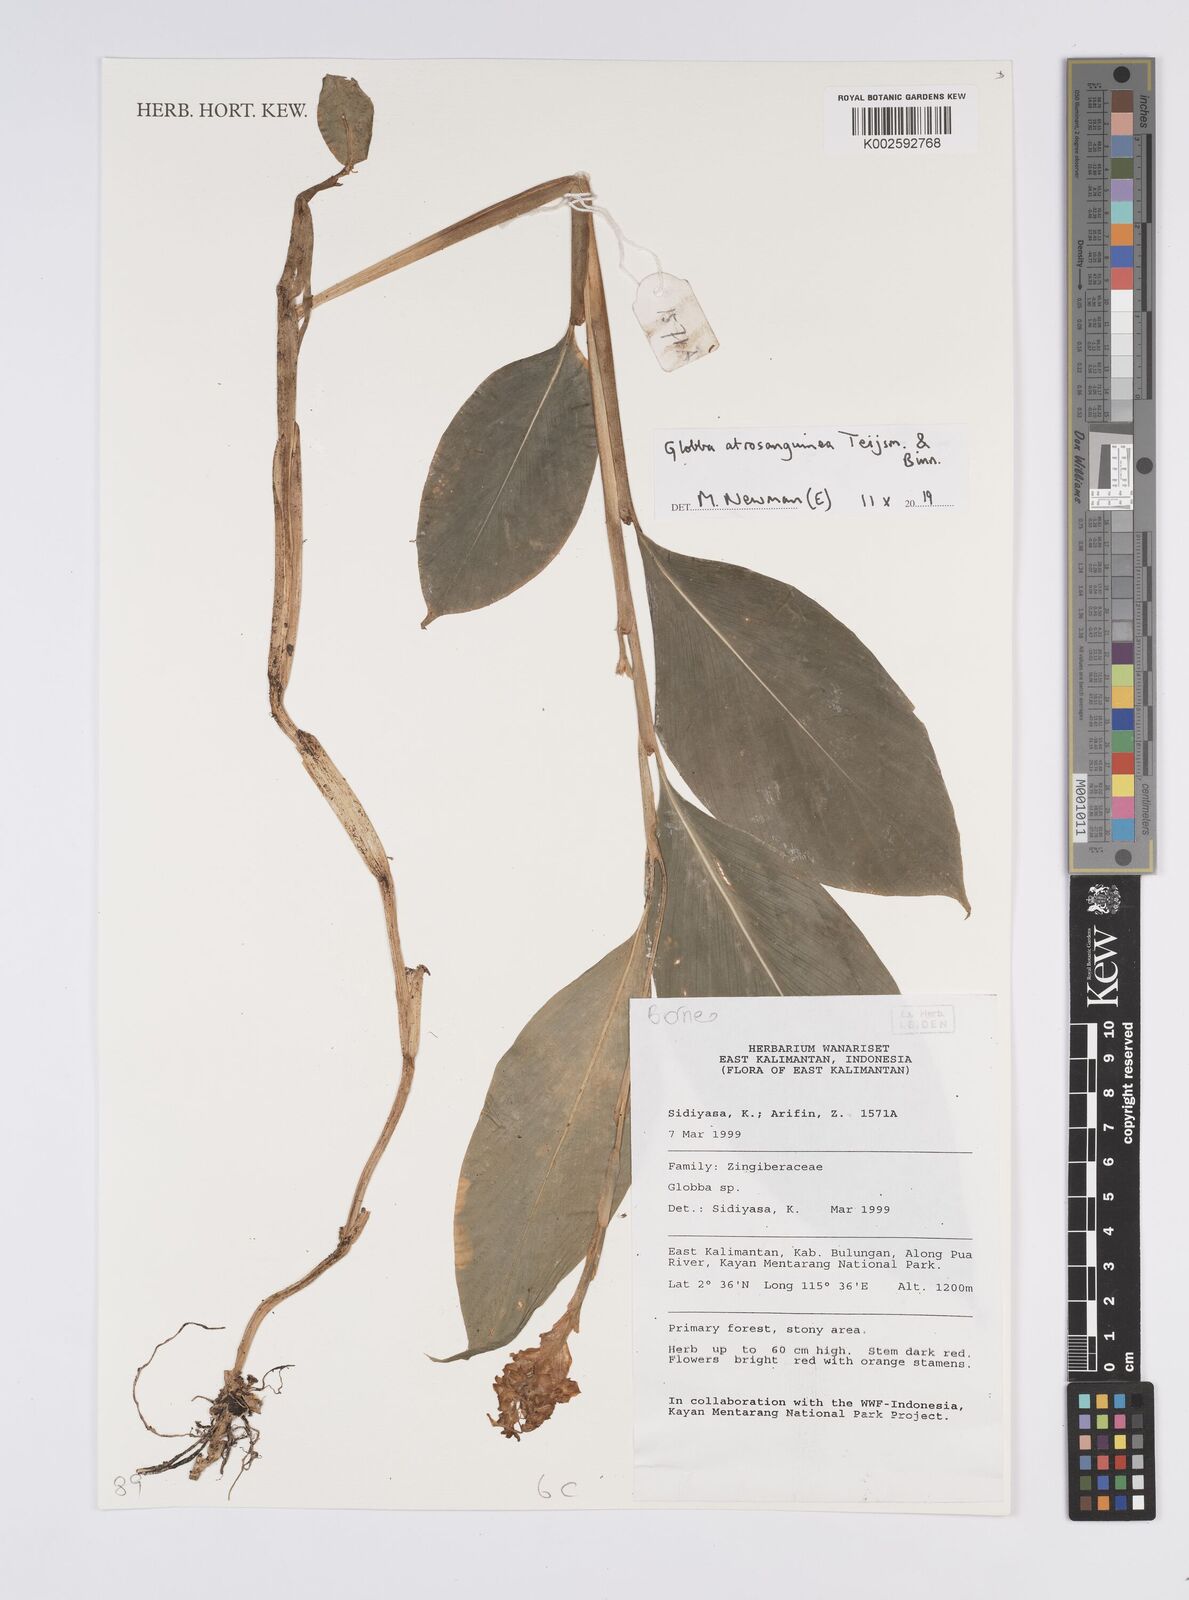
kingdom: Plantae
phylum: Tracheophyta
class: Liliopsida
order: Zingiberales
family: Zingiberaceae
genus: Globba
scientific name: Globba atrosanguinea
